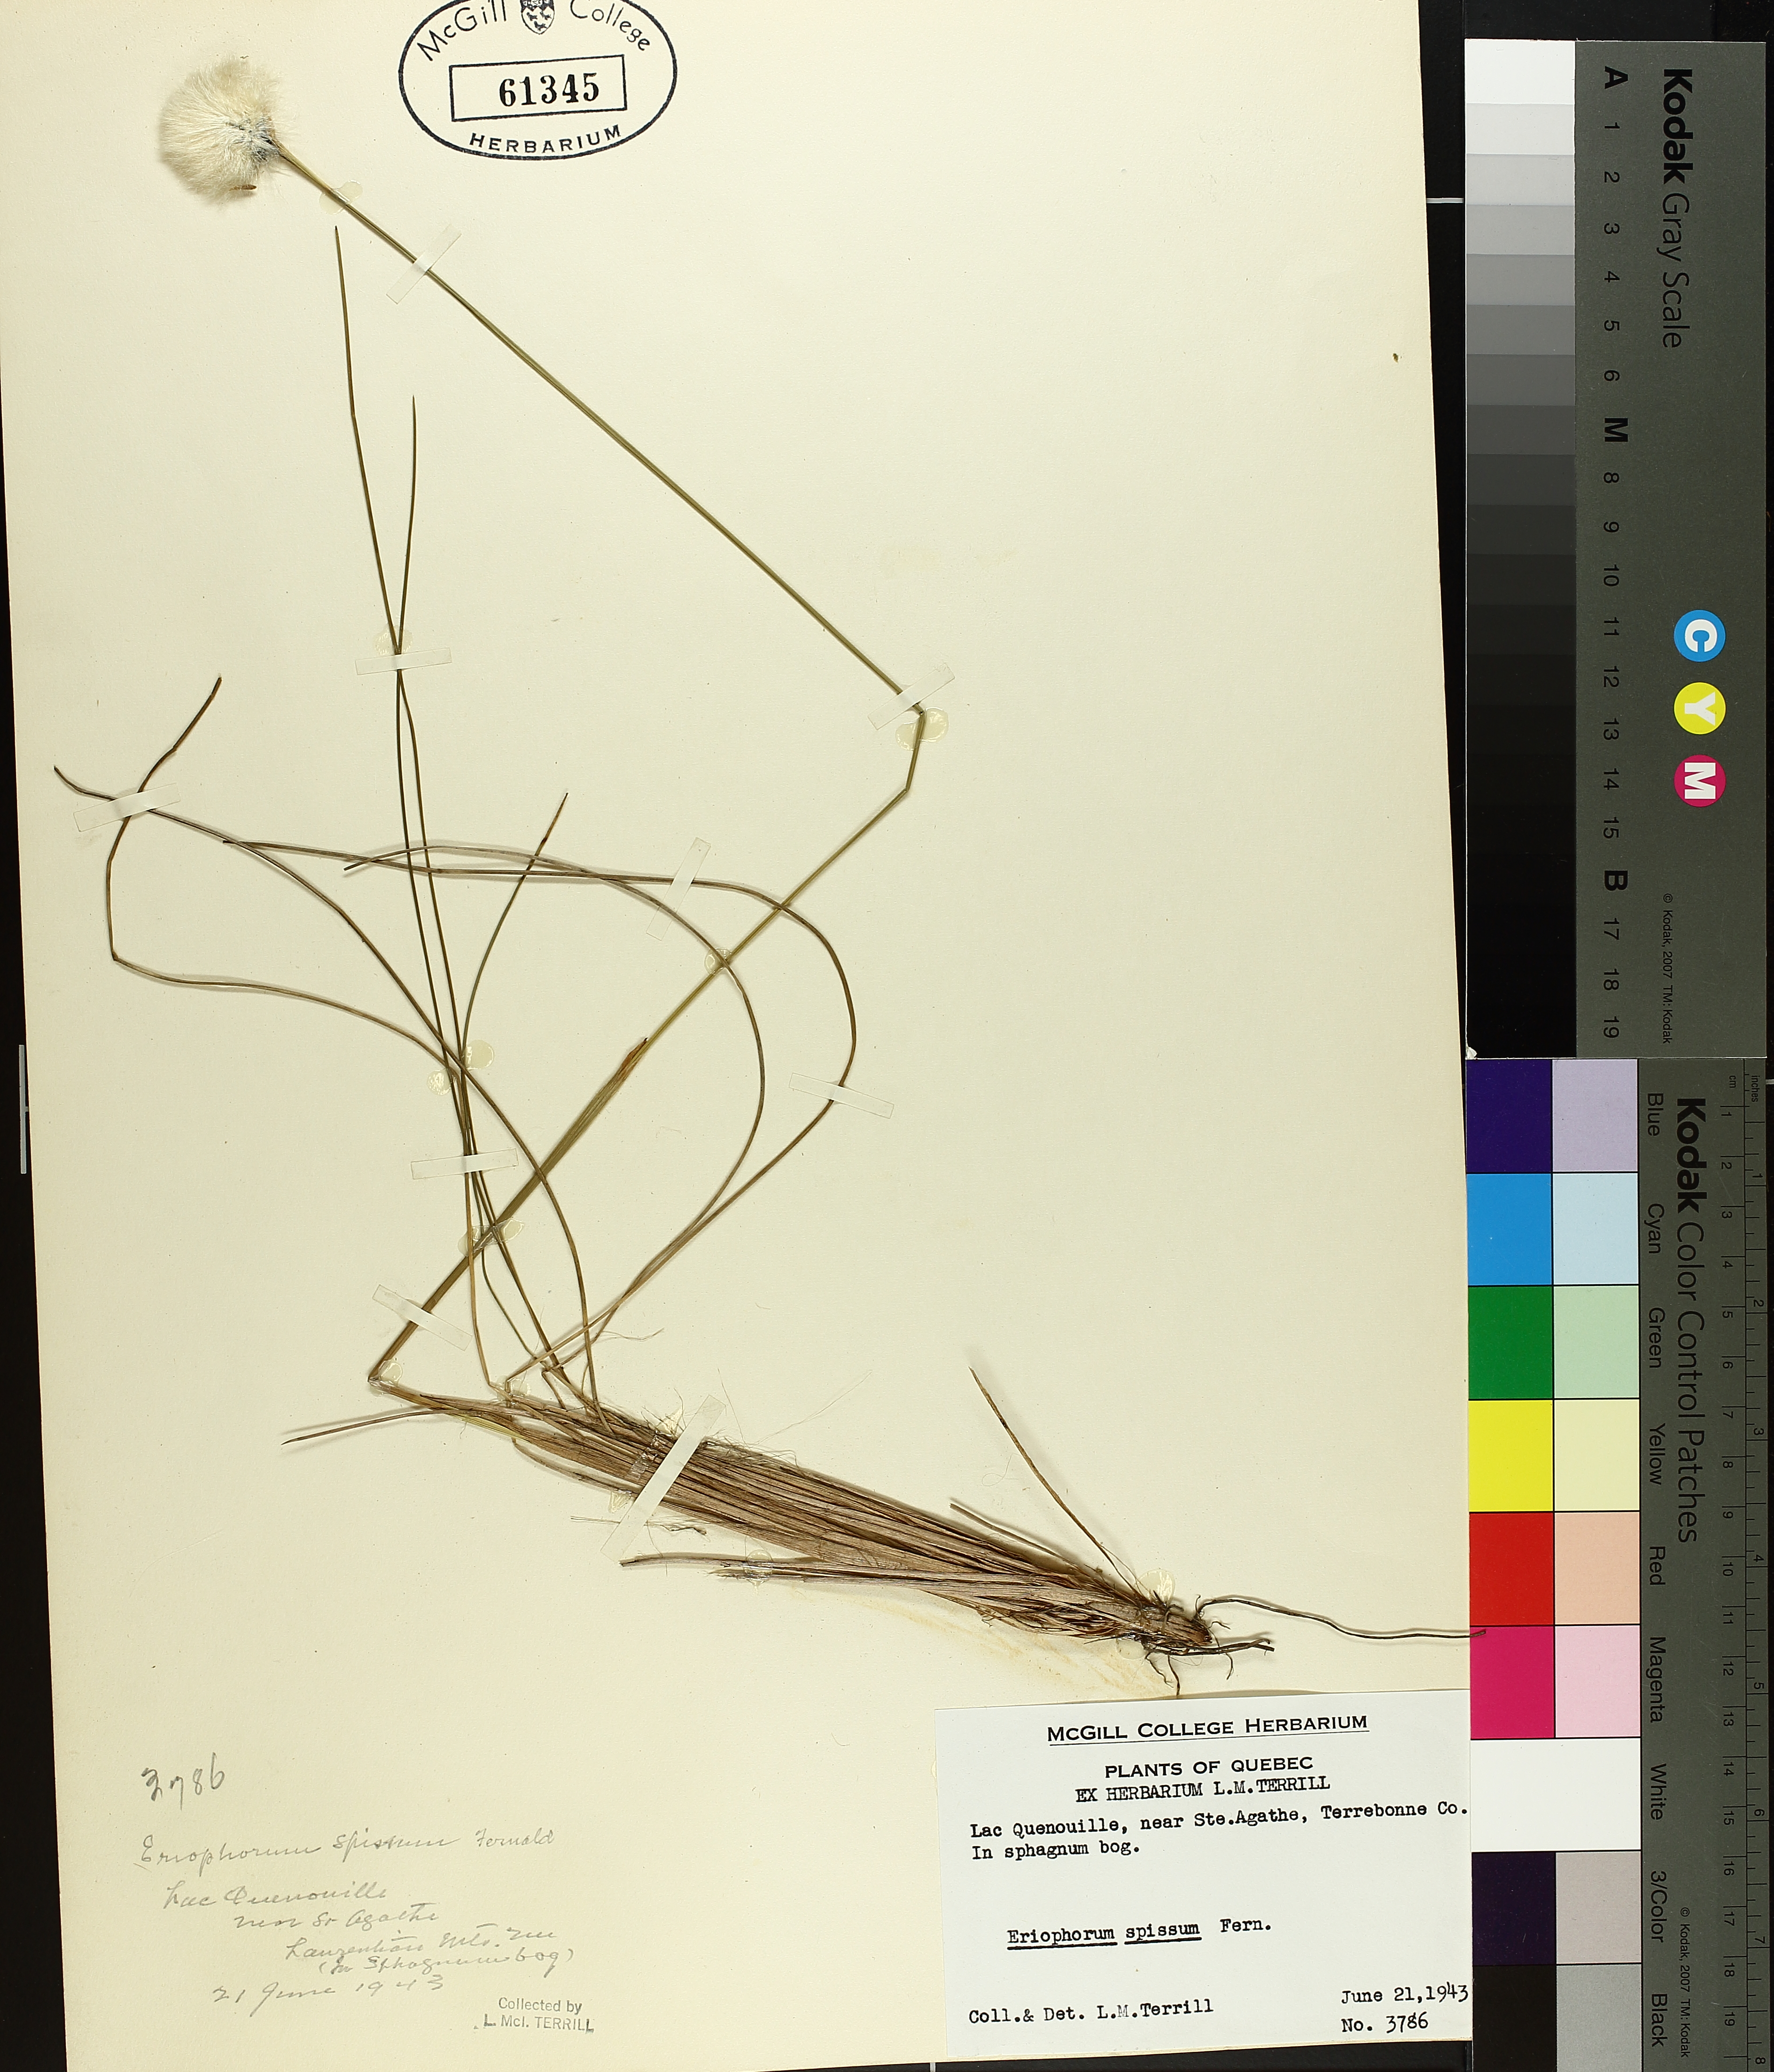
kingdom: Plantae
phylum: Tracheophyta
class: Liliopsida
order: Poales
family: Cyperaceae
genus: Eriophorum
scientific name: Eriophorum vaginatum
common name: Hare's-tail cottongrass
